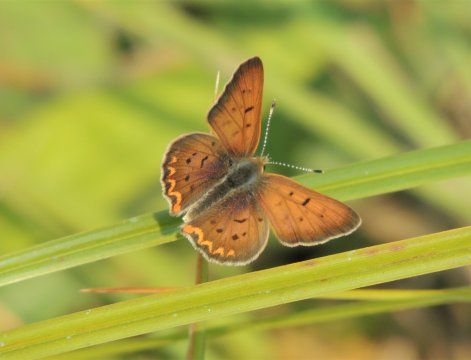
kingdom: Animalia
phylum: Arthropoda
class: Insecta
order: Lepidoptera
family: Sesiidae
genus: Sesia
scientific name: Sesia Lycaena helloides
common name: Purplish Copper
